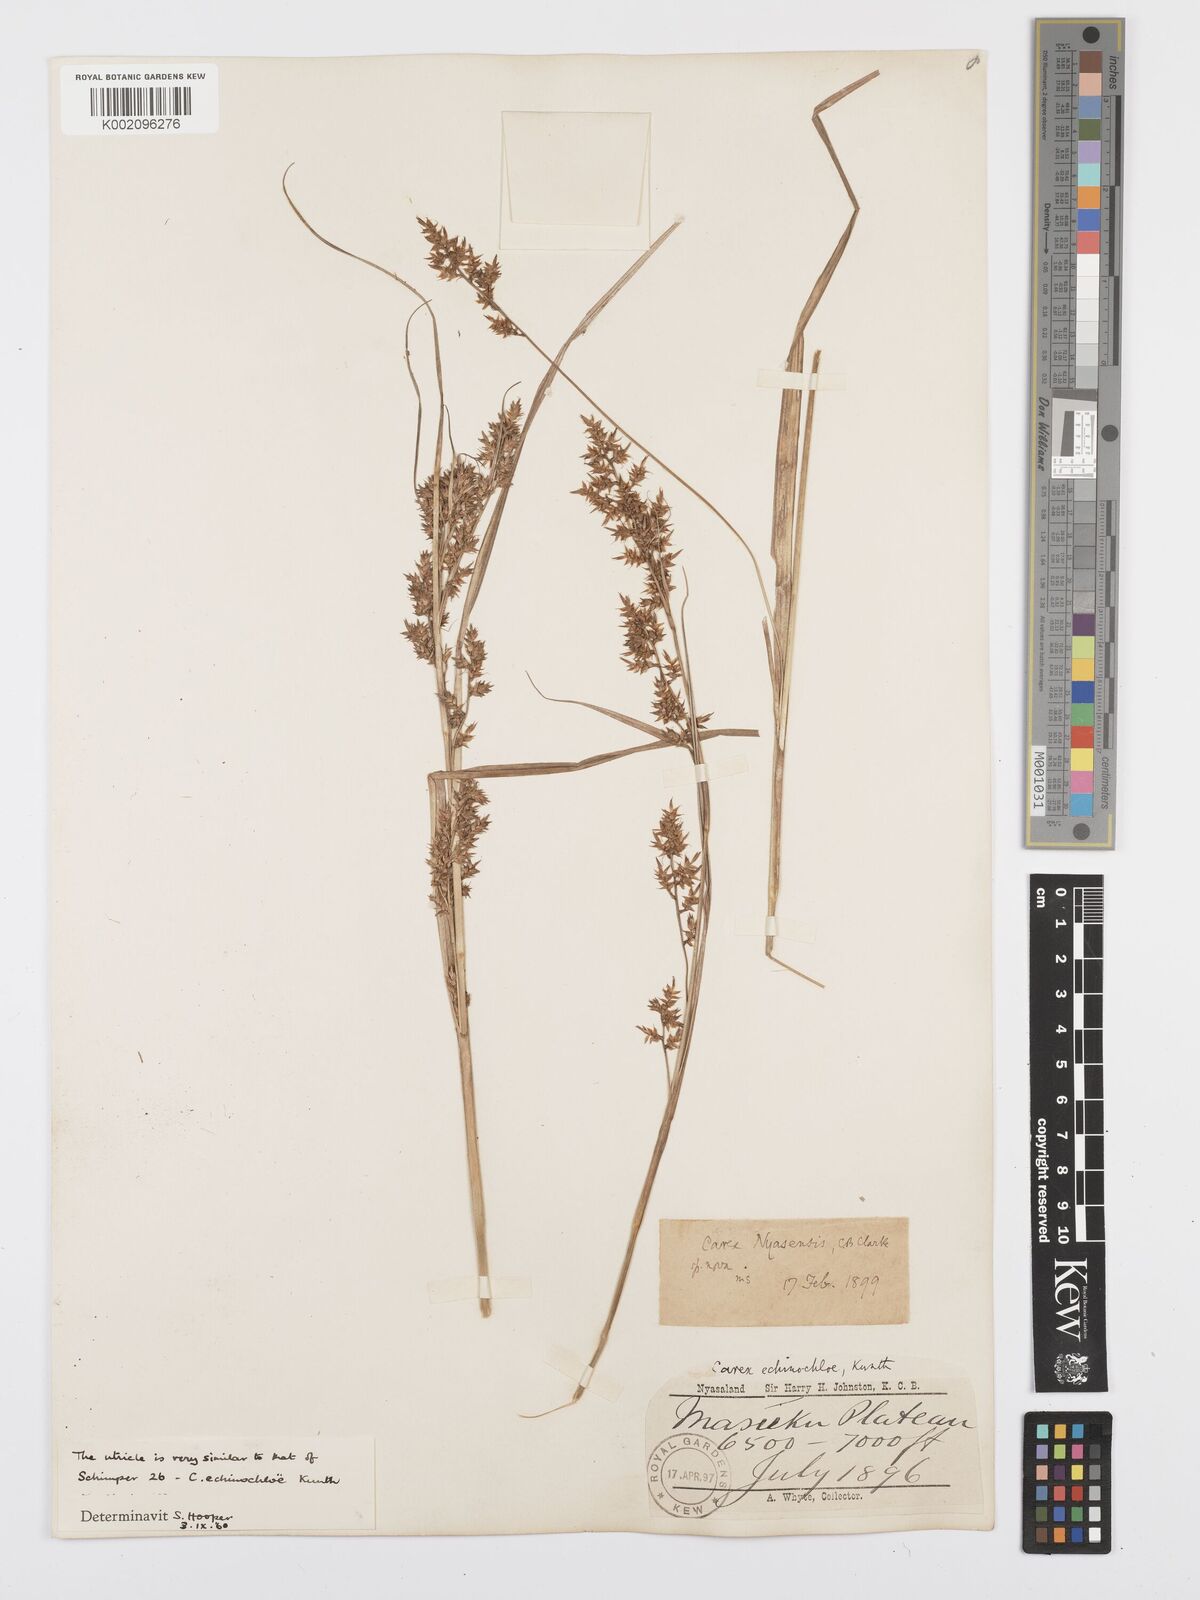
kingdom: Plantae
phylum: Tracheophyta
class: Liliopsida
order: Poales
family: Cyperaceae
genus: Carex
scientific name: Carex spicatopaniculata
